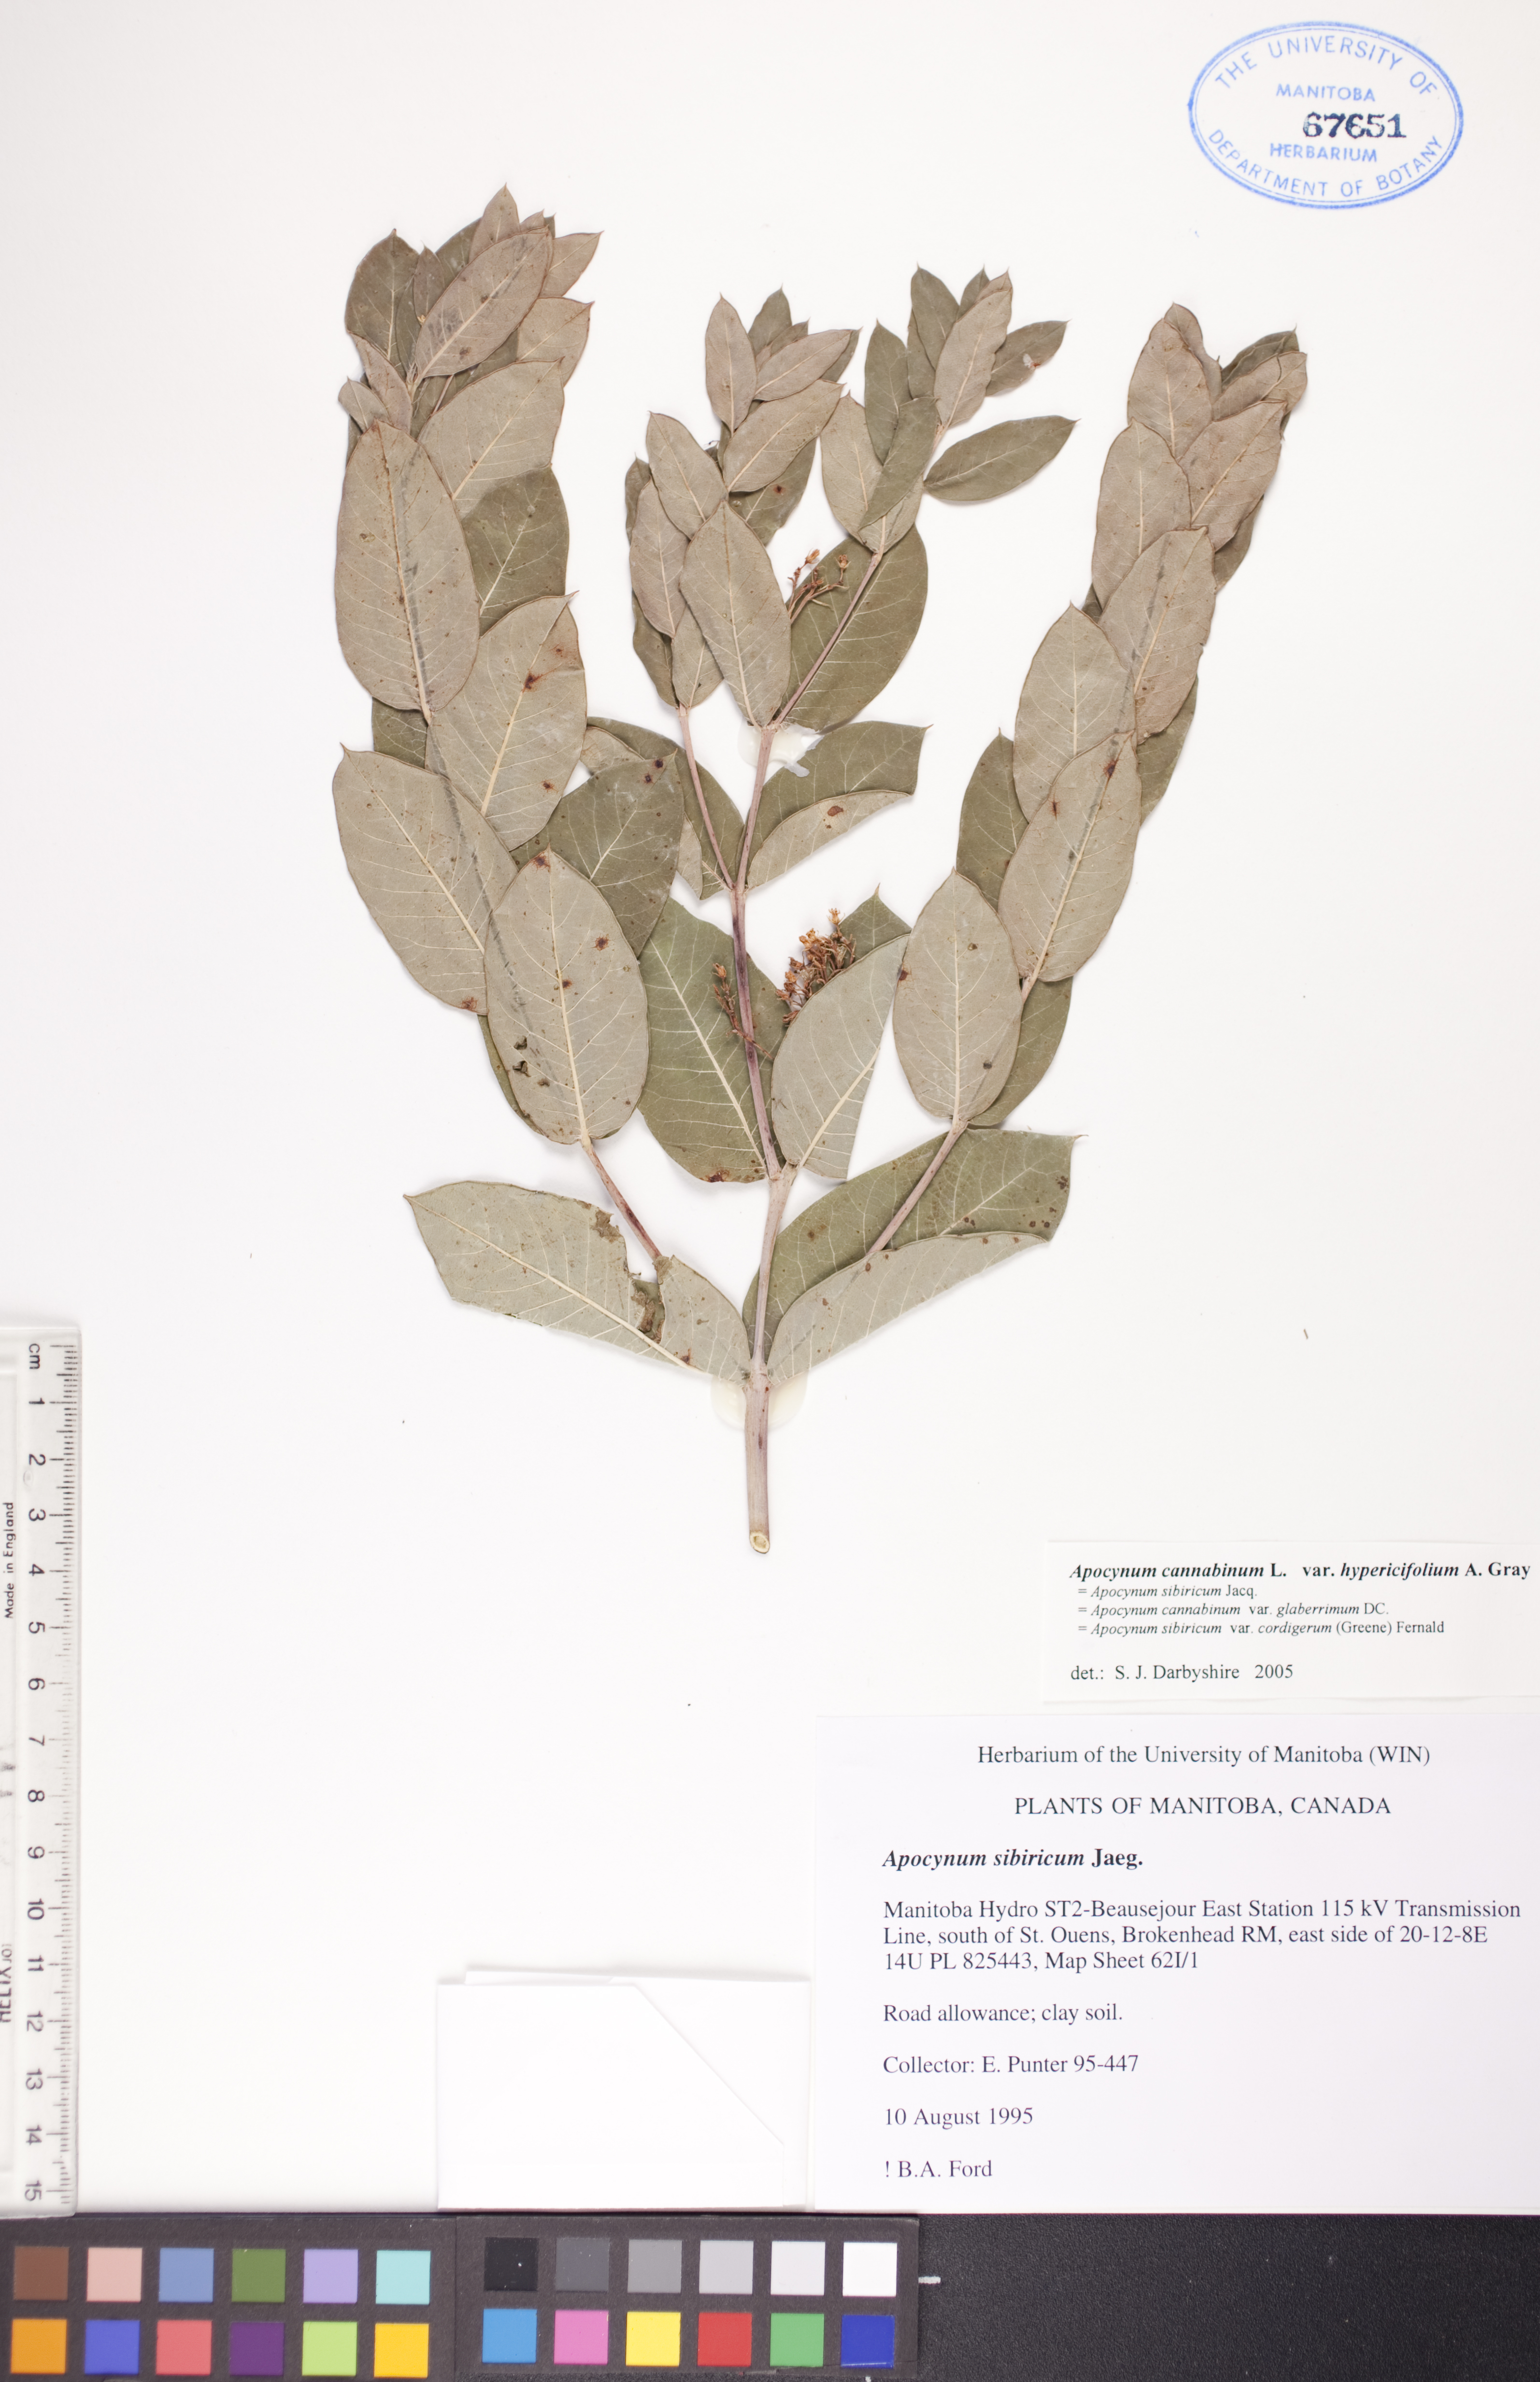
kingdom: Plantae
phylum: Tracheophyta
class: Magnoliopsida
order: Gentianales
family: Apocynaceae
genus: Apocynum
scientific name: Apocynum cannabinum
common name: Hemp dogbane
